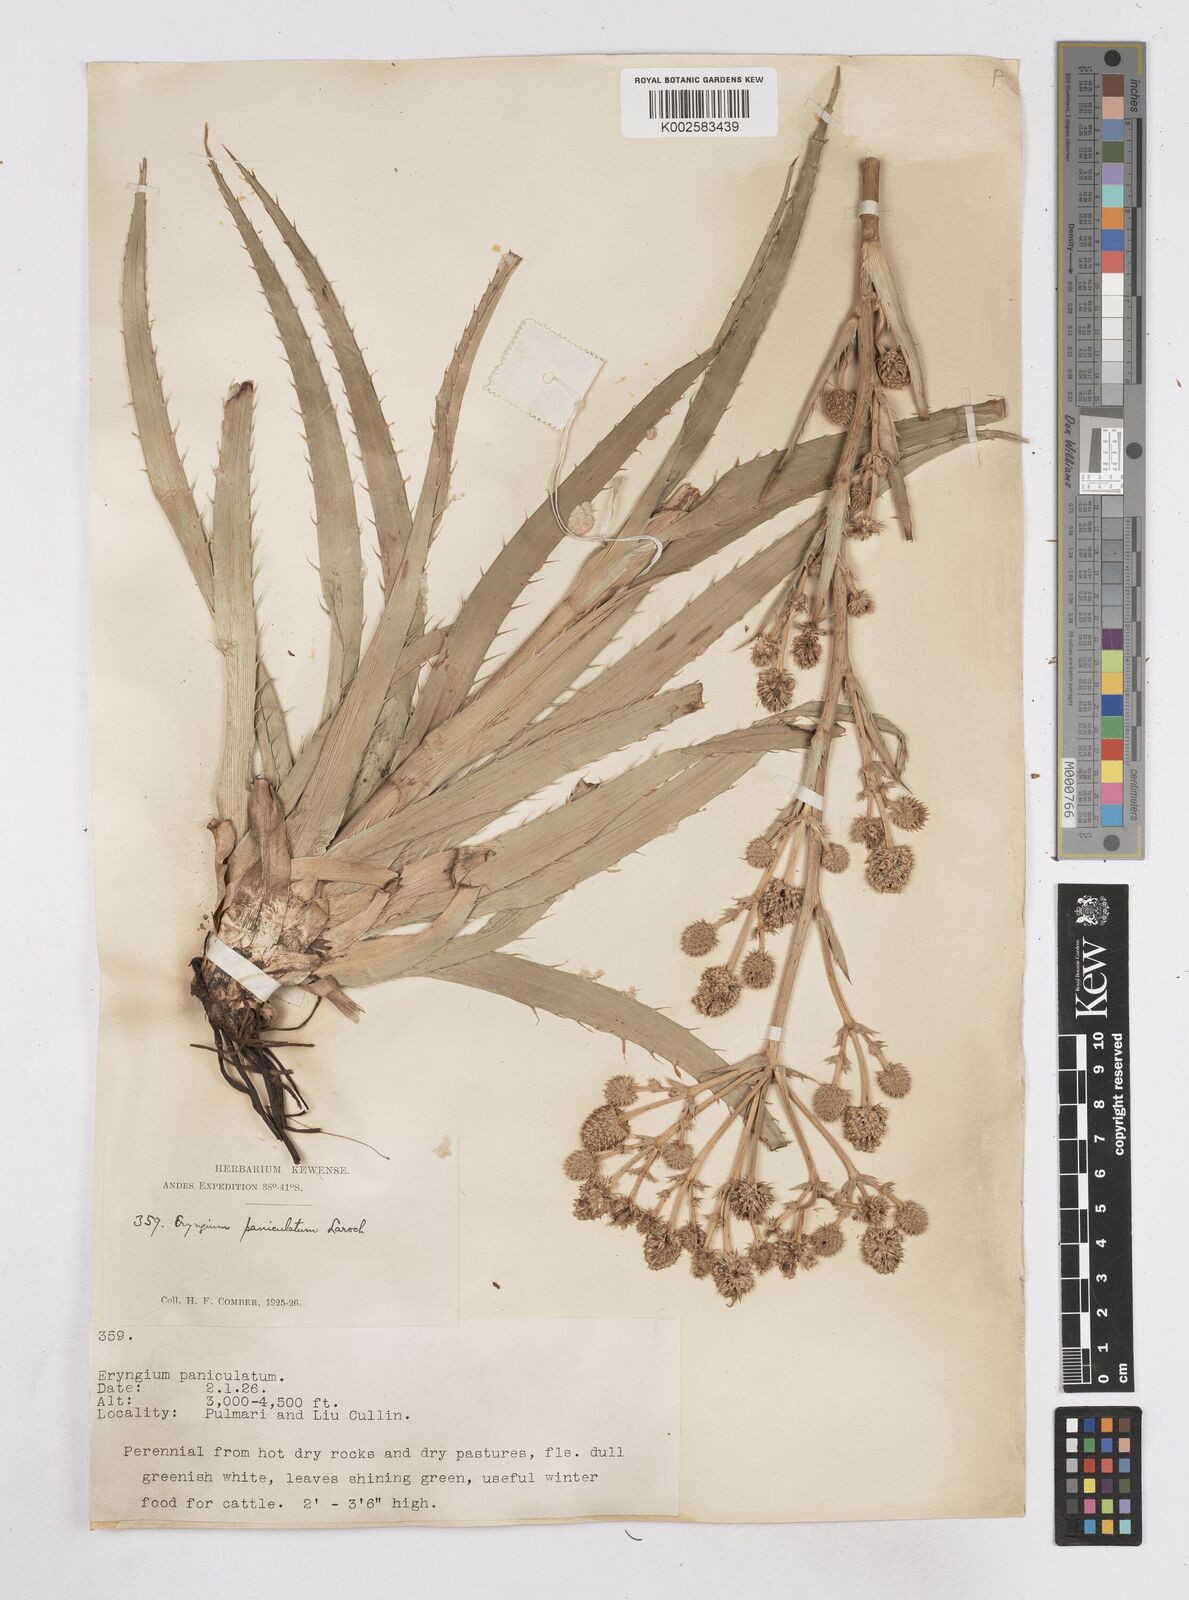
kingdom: Plantae
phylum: Tracheophyta
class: Magnoliopsida
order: Apiales
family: Apiaceae
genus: Eryngium
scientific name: Eryngium humboldtii
